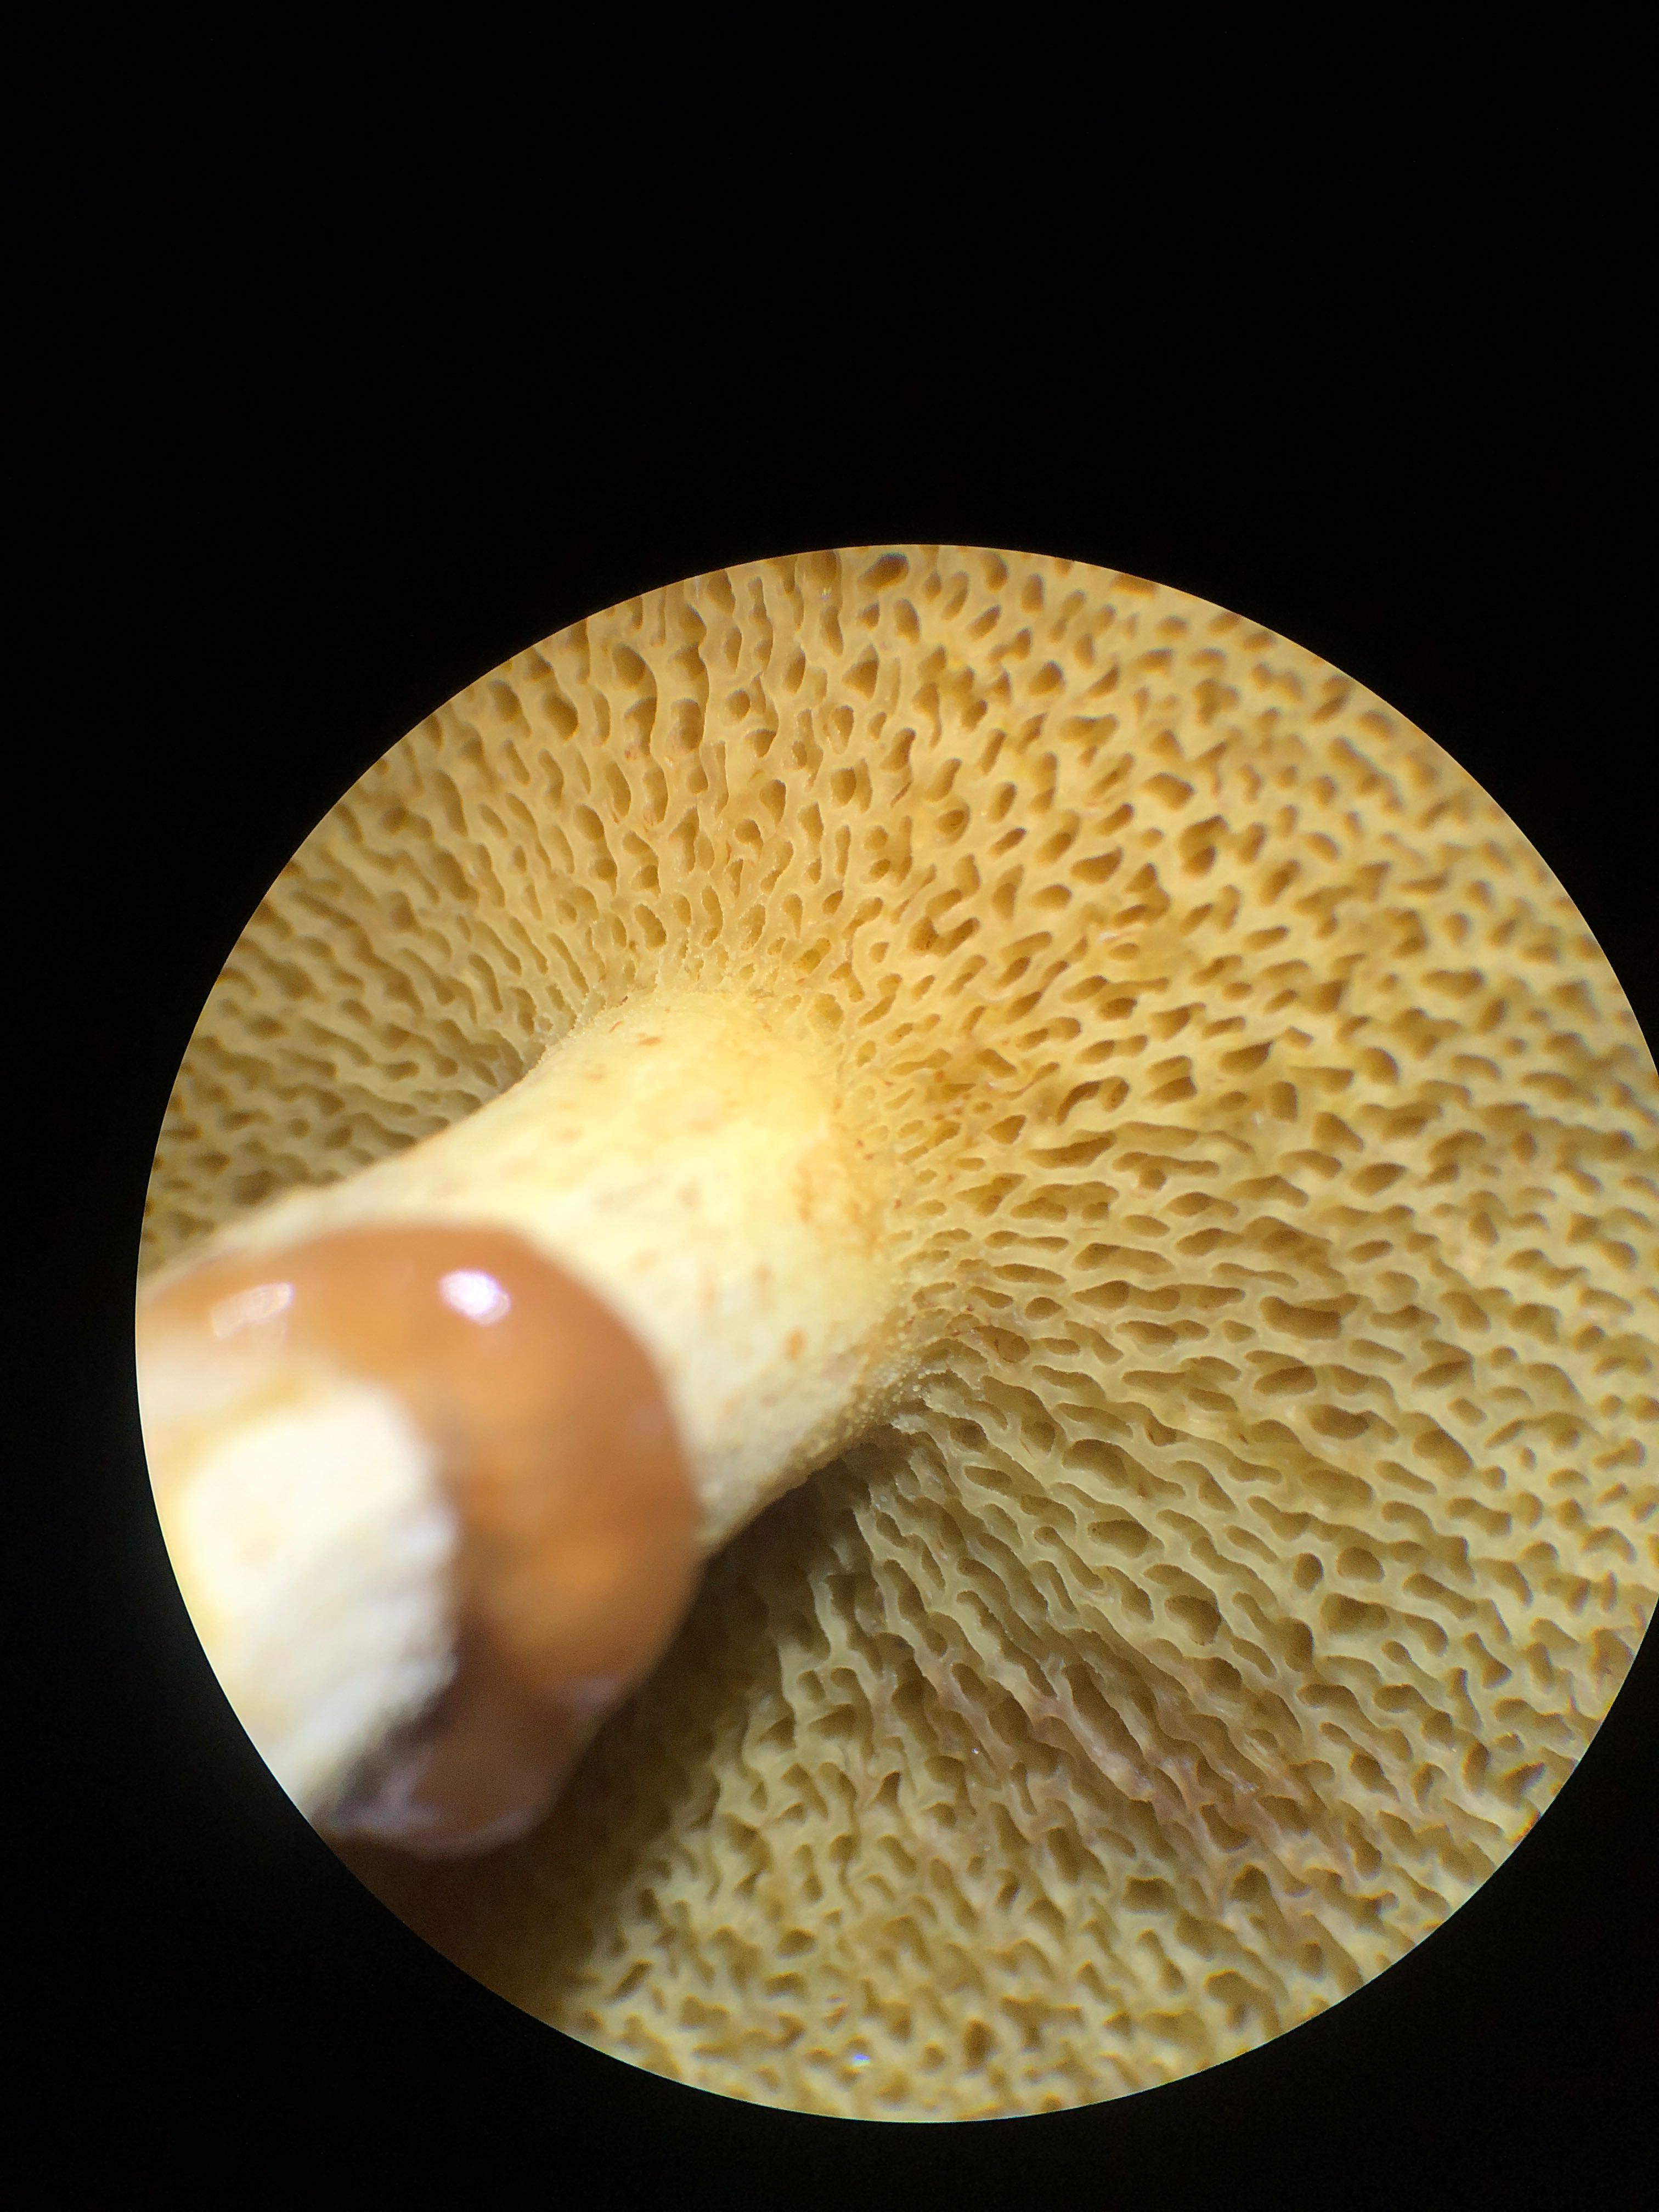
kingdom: Fungi
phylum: Basidiomycota
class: Agaricomycetes
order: Boletales
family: Suillaceae
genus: Suillus
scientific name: Suillus flavidus
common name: mose-slimrørhat
